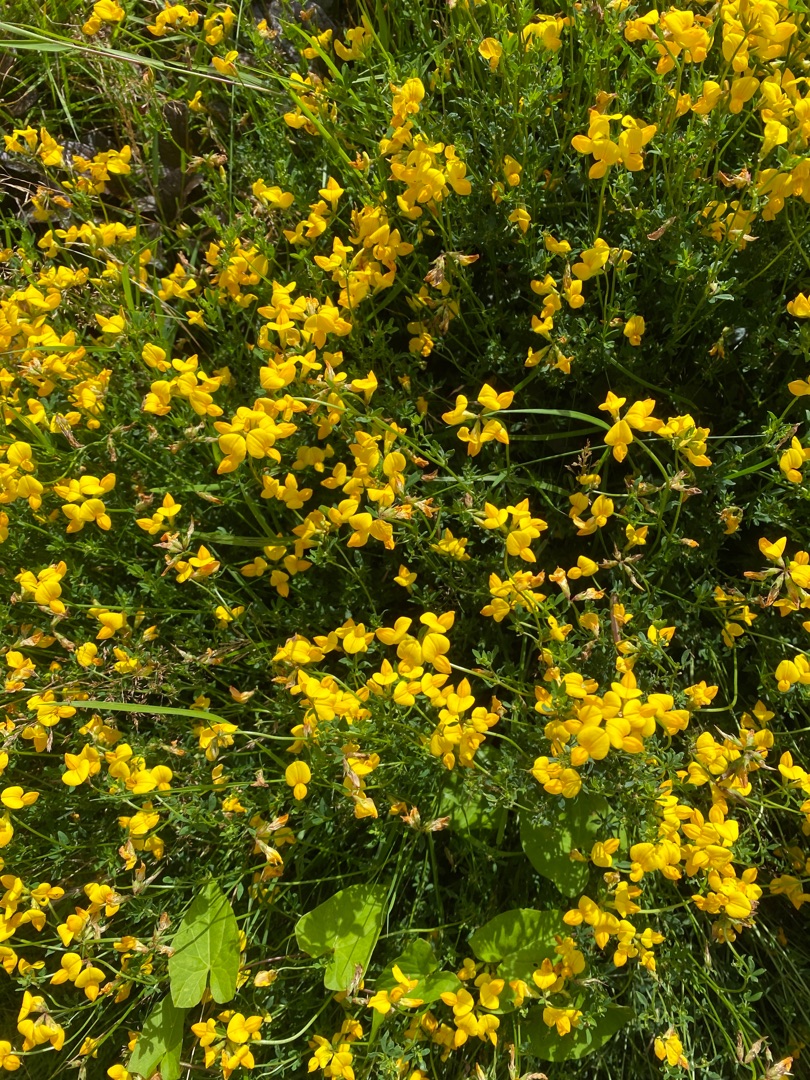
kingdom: Plantae
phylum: Tracheophyta
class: Magnoliopsida
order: Fabales
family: Fabaceae
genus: Lotus
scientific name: Lotus corniculatus
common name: Almindelig kællingetand
